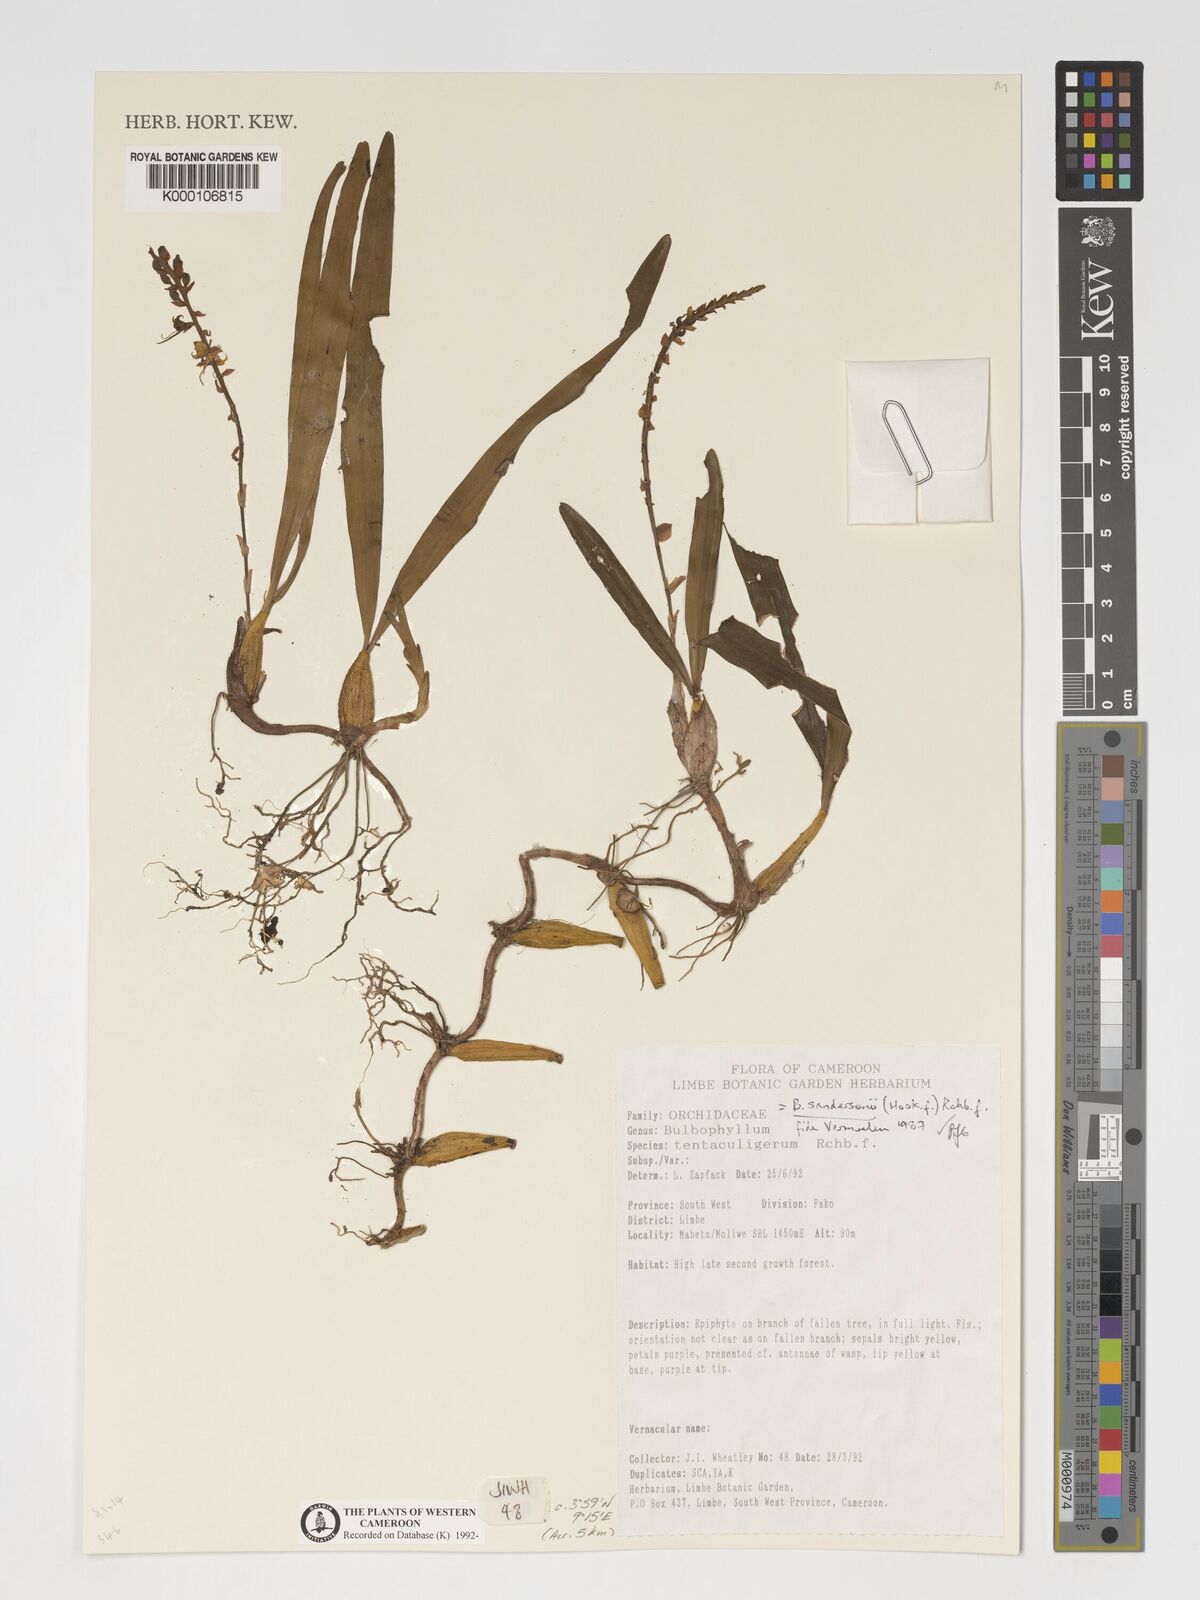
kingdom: Plantae
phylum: Tracheophyta
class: Liliopsida
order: Asparagales
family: Orchidaceae
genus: Bulbophyllum
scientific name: Bulbophyllum sandersonii
